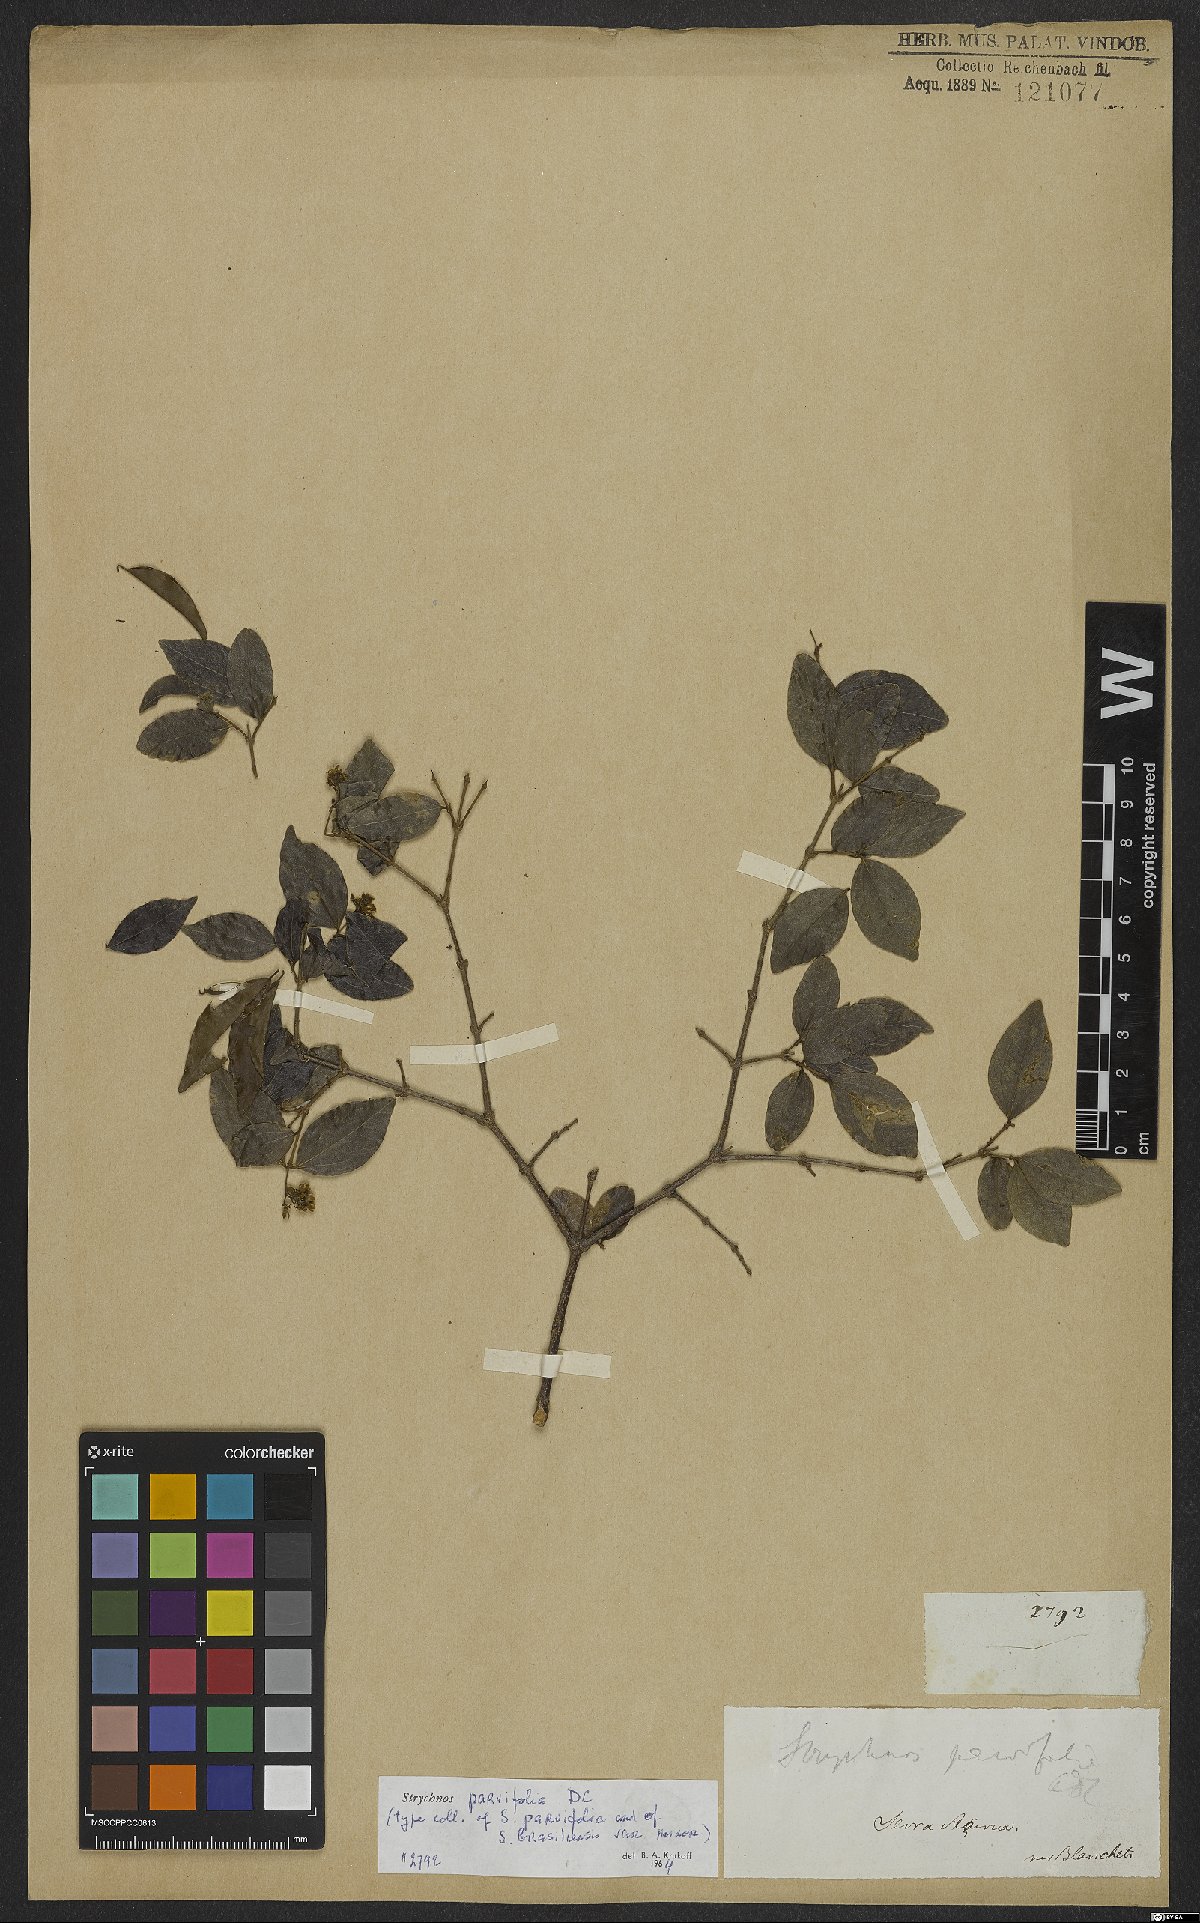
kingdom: Plantae
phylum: Tracheophyta
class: Magnoliopsida
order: Gentianales
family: Loganiaceae
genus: Strychnos
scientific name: Strychnos parvifolia
